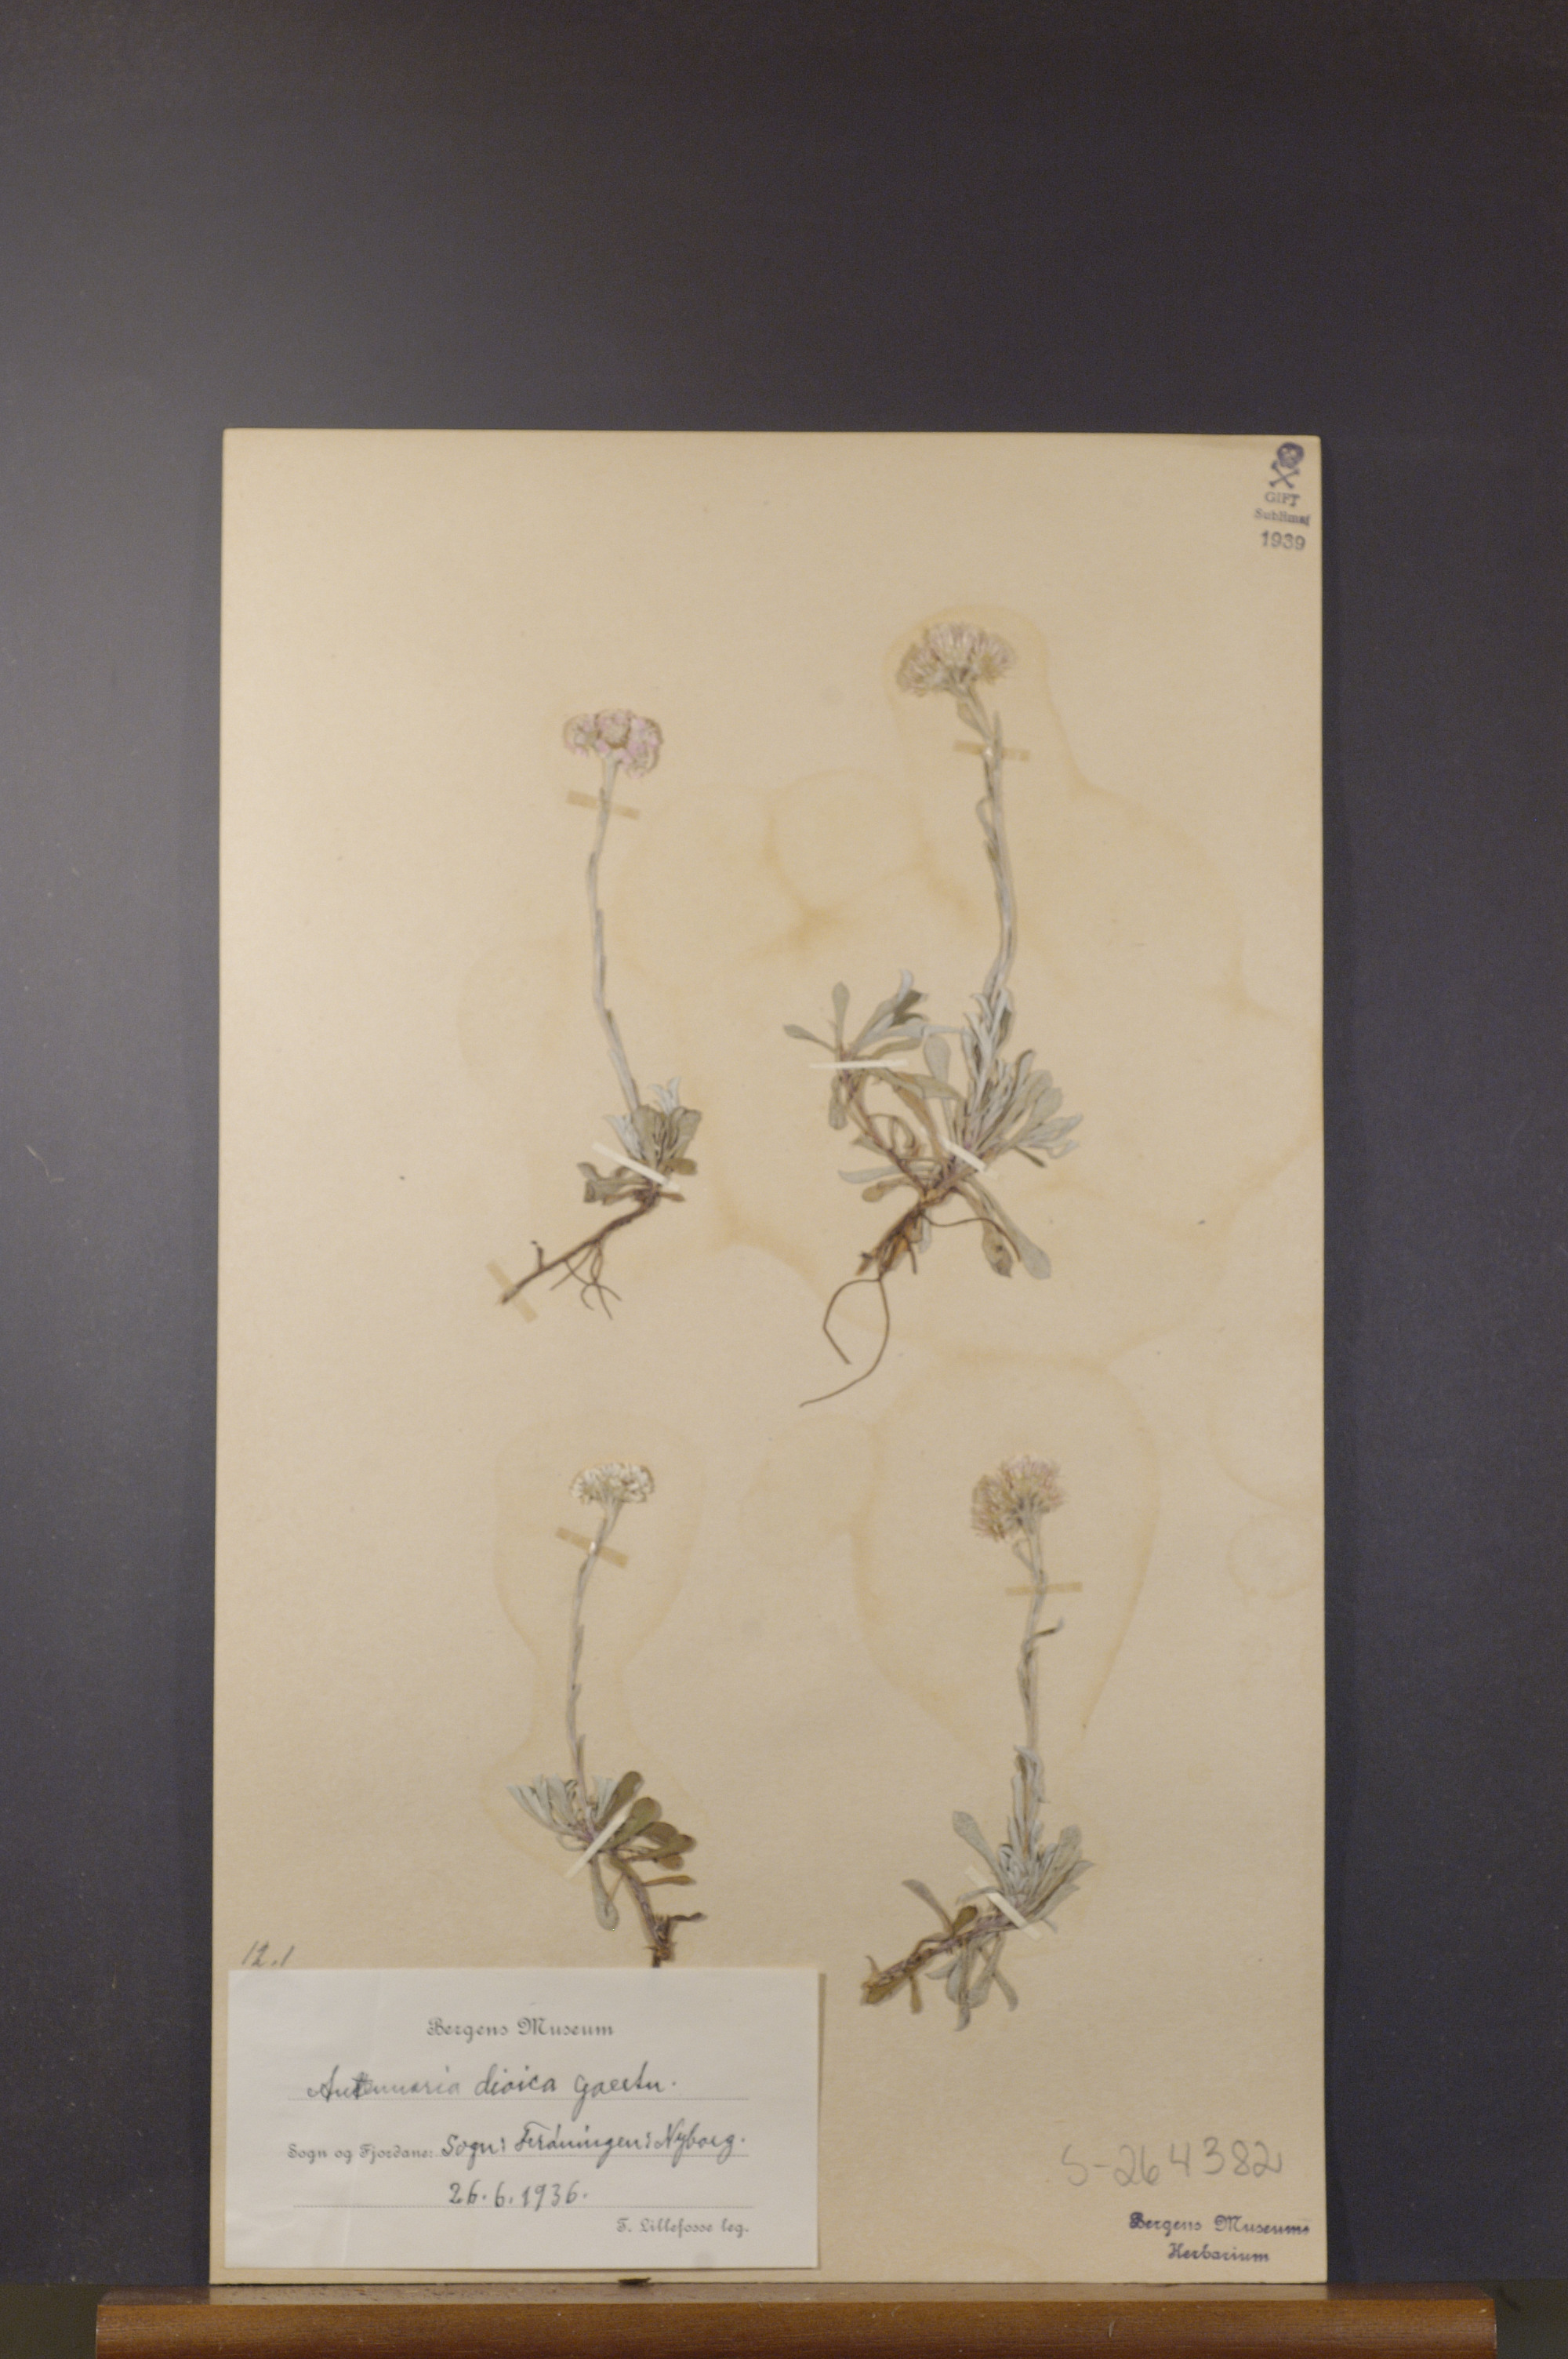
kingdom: Plantae
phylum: Tracheophyta
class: Magnoliopsida
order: Asterales
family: Asteraceae
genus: Antennaria
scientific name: Antennaria dioica
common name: Mountain everlasting
